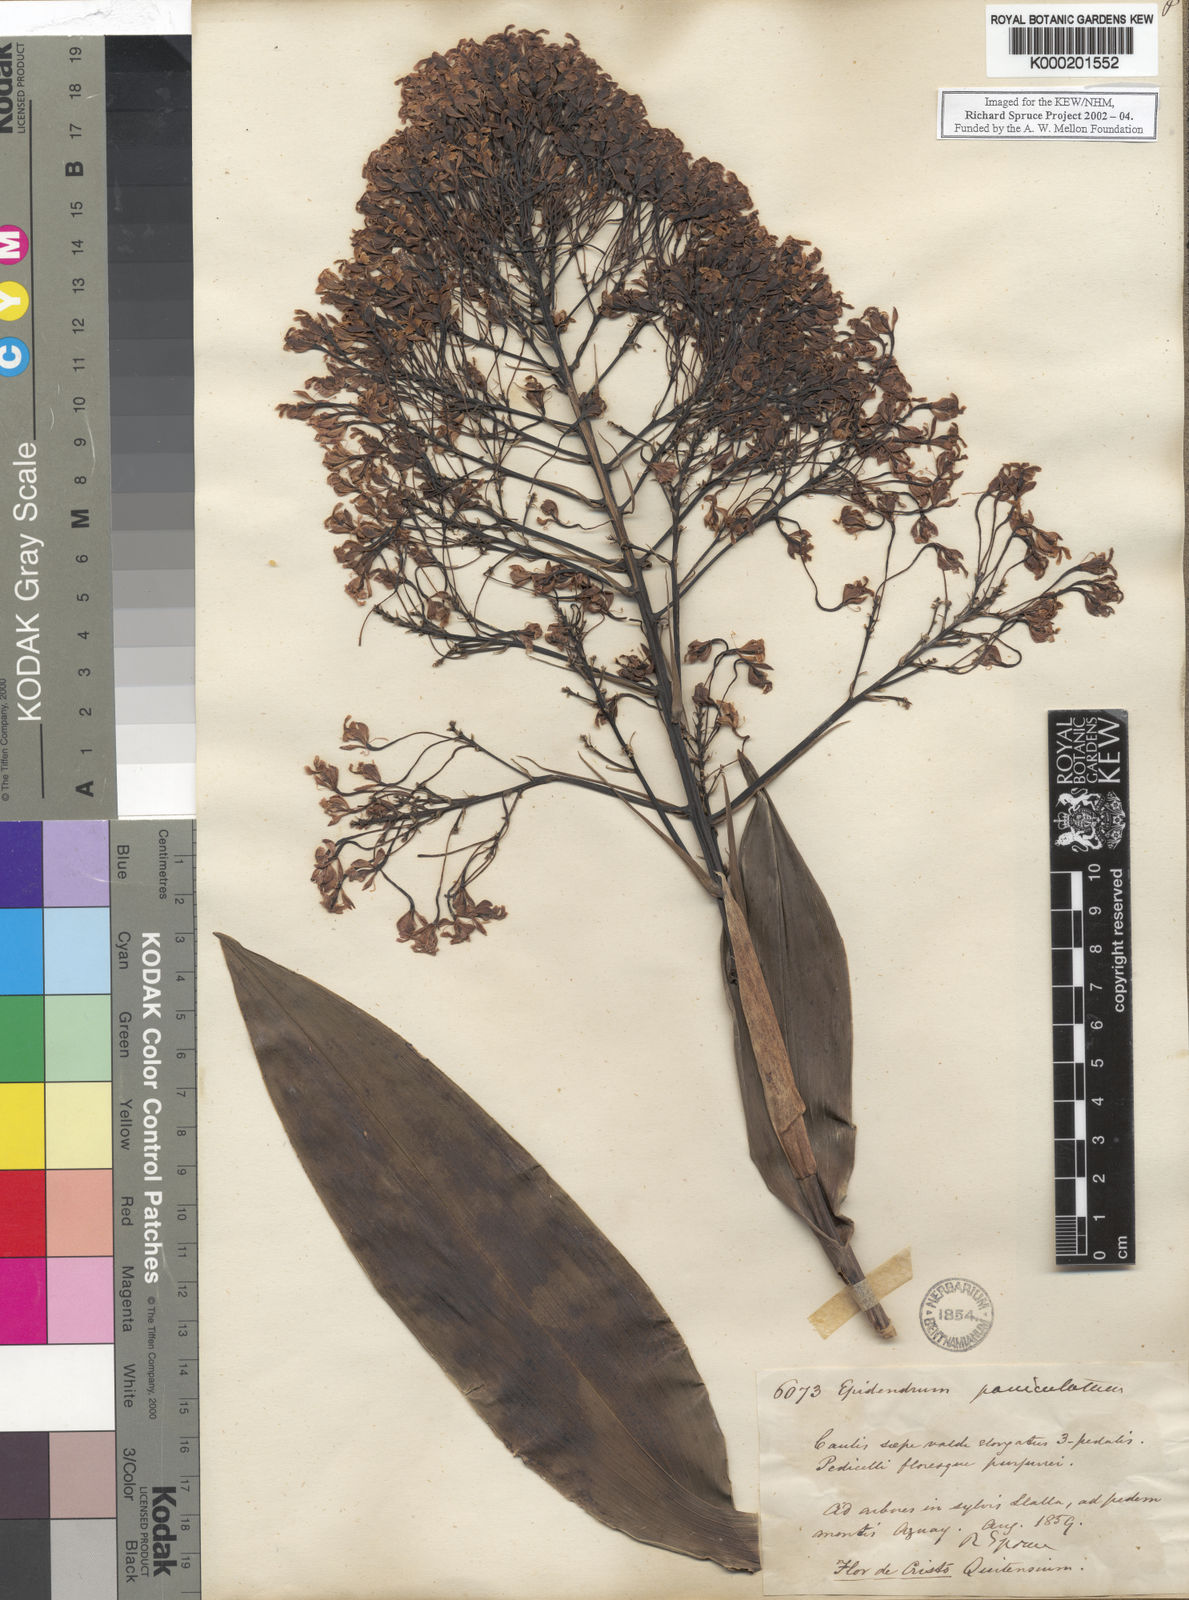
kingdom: Plantae
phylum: Tracheophyta
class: Liliopsida
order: Asparagales
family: Orchidaceae
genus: Epidendrum
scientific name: Epidendrum atacazoicum
